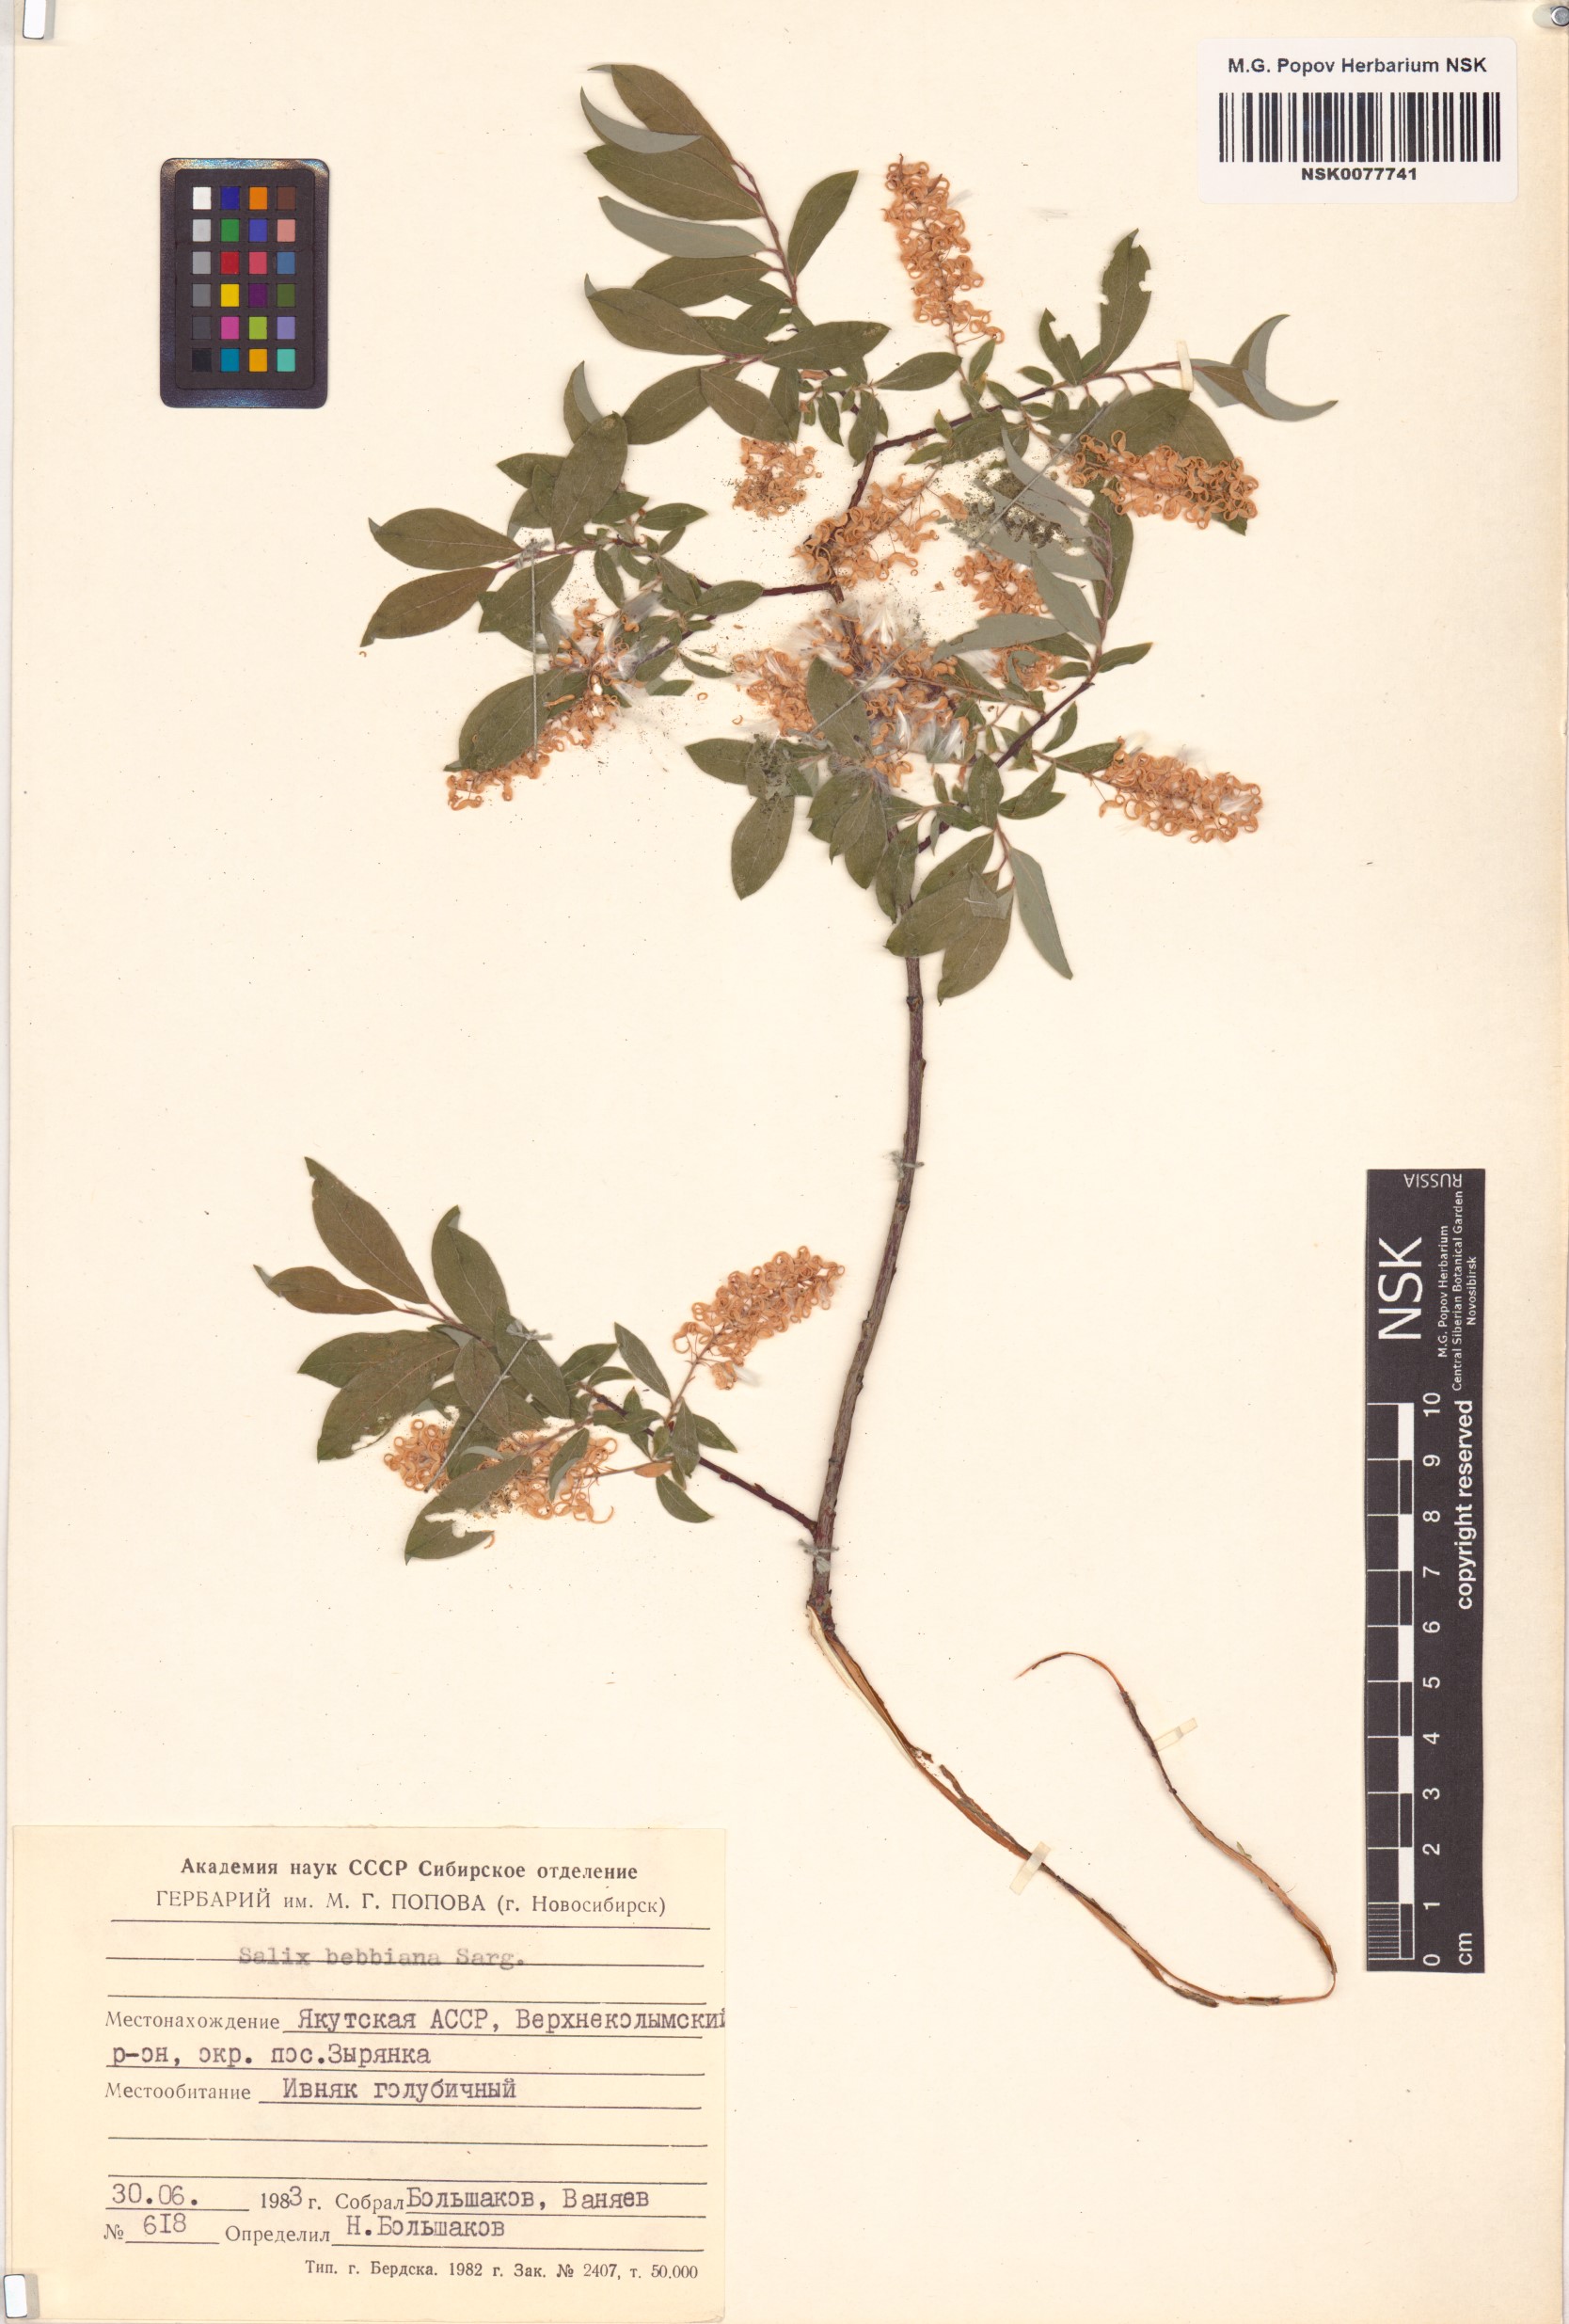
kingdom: Plantae
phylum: Tracheophyta
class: Magnoliopsida
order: Malpighiales
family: Salicaceae
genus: Salix
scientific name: Salix bebbiana
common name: Bebb's willow
